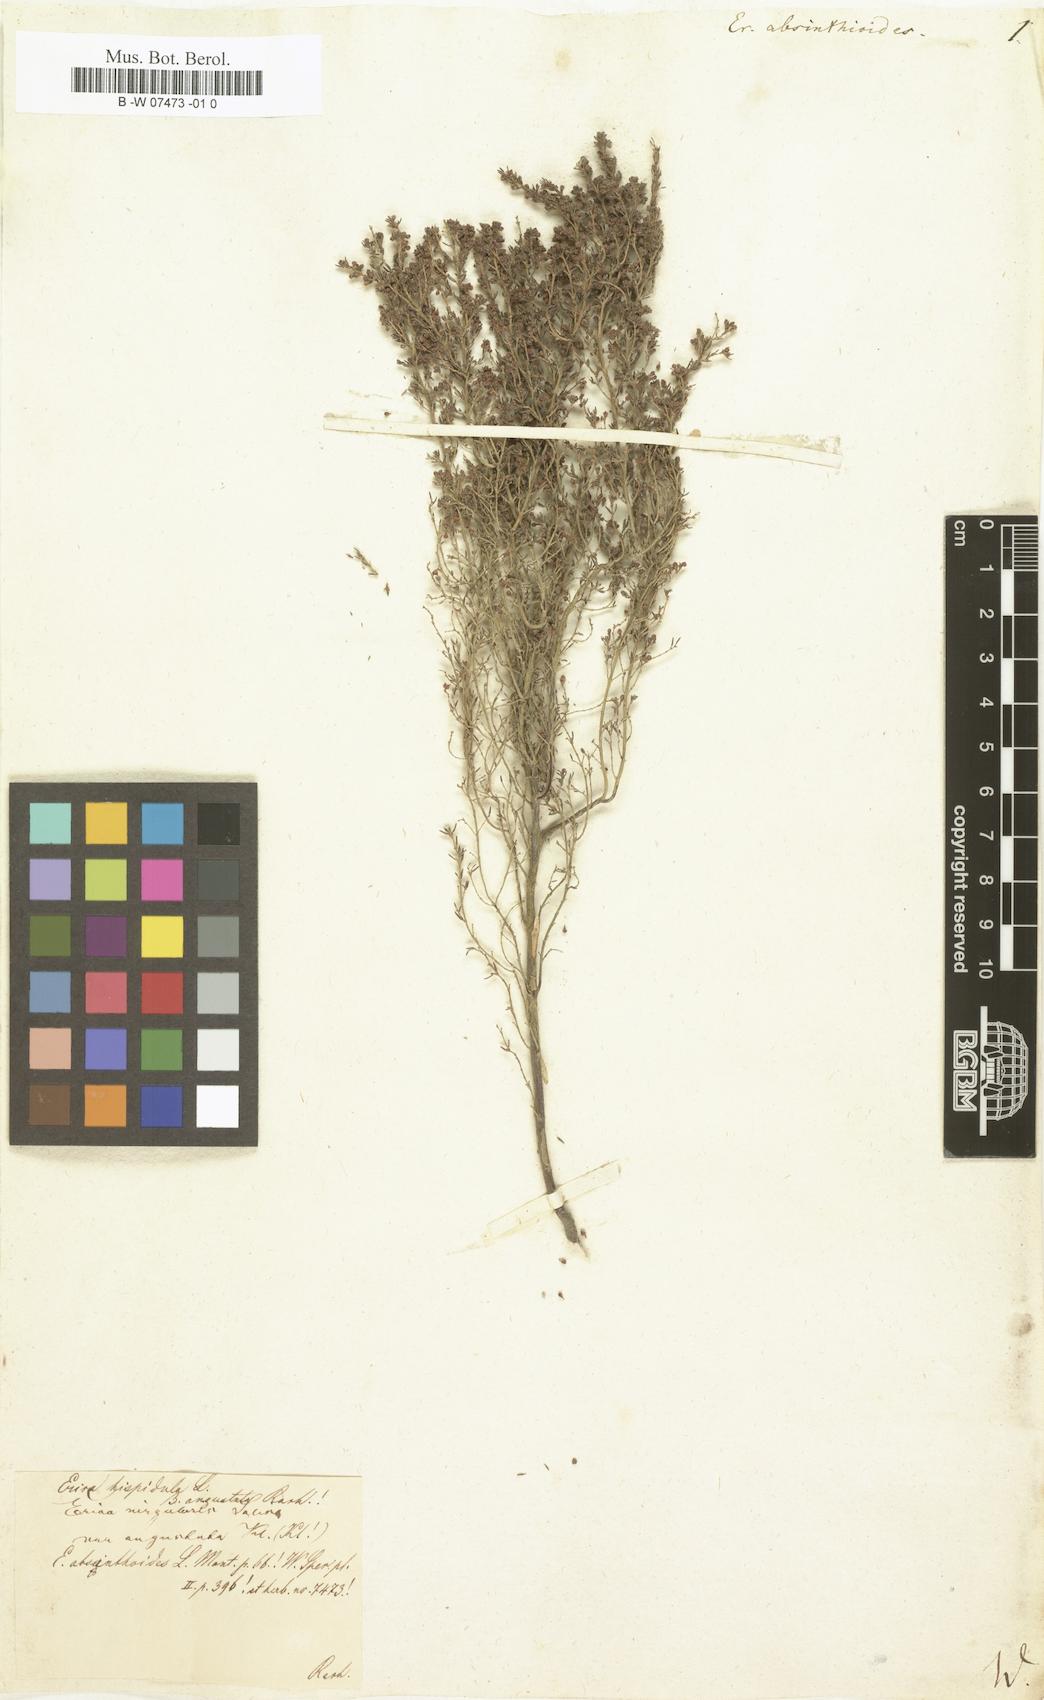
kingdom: Plantae
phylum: Tracheophyta
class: Magnoliopsida
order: Ericales
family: Ericaceae
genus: Erica
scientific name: Erica scoparia
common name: Green heather
